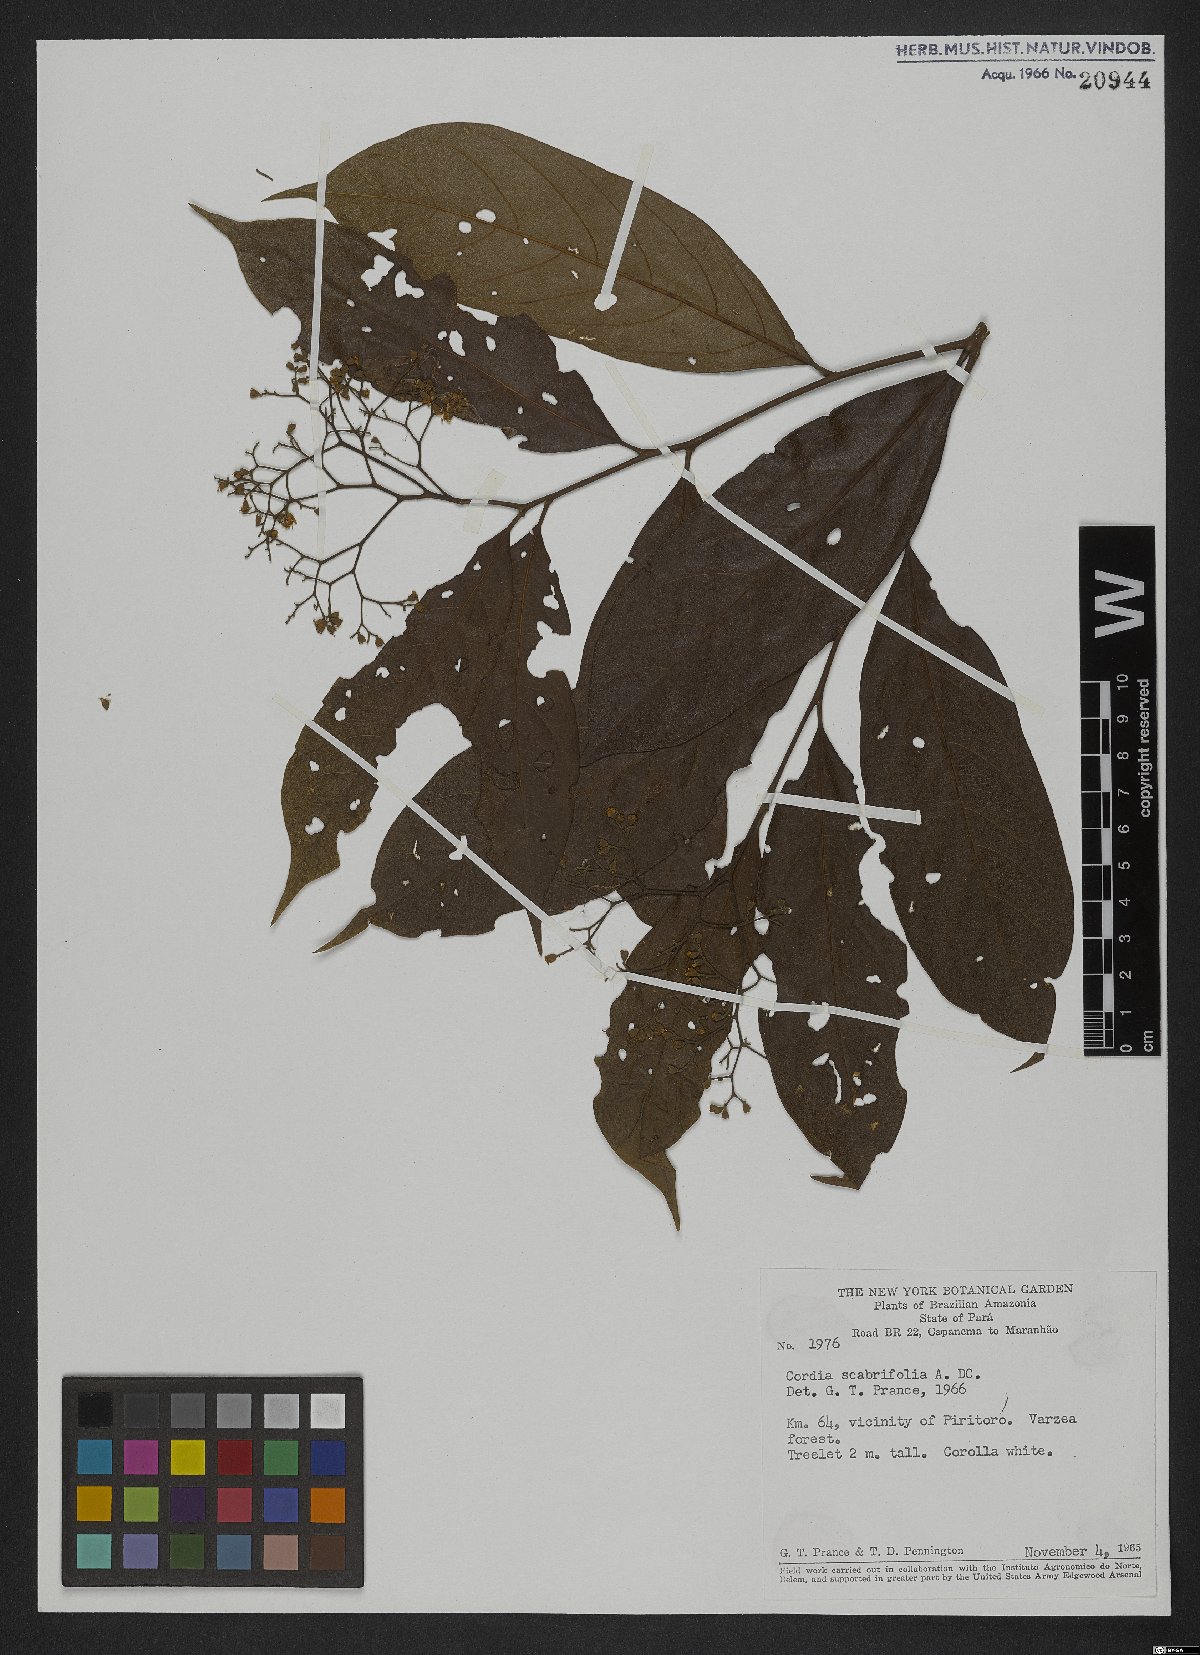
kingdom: Plantae
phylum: Tracheophyta
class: Magnoliopsida
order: Boraginales
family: Cordiaceae
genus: Cordia
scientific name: Cordia scabrifolia
